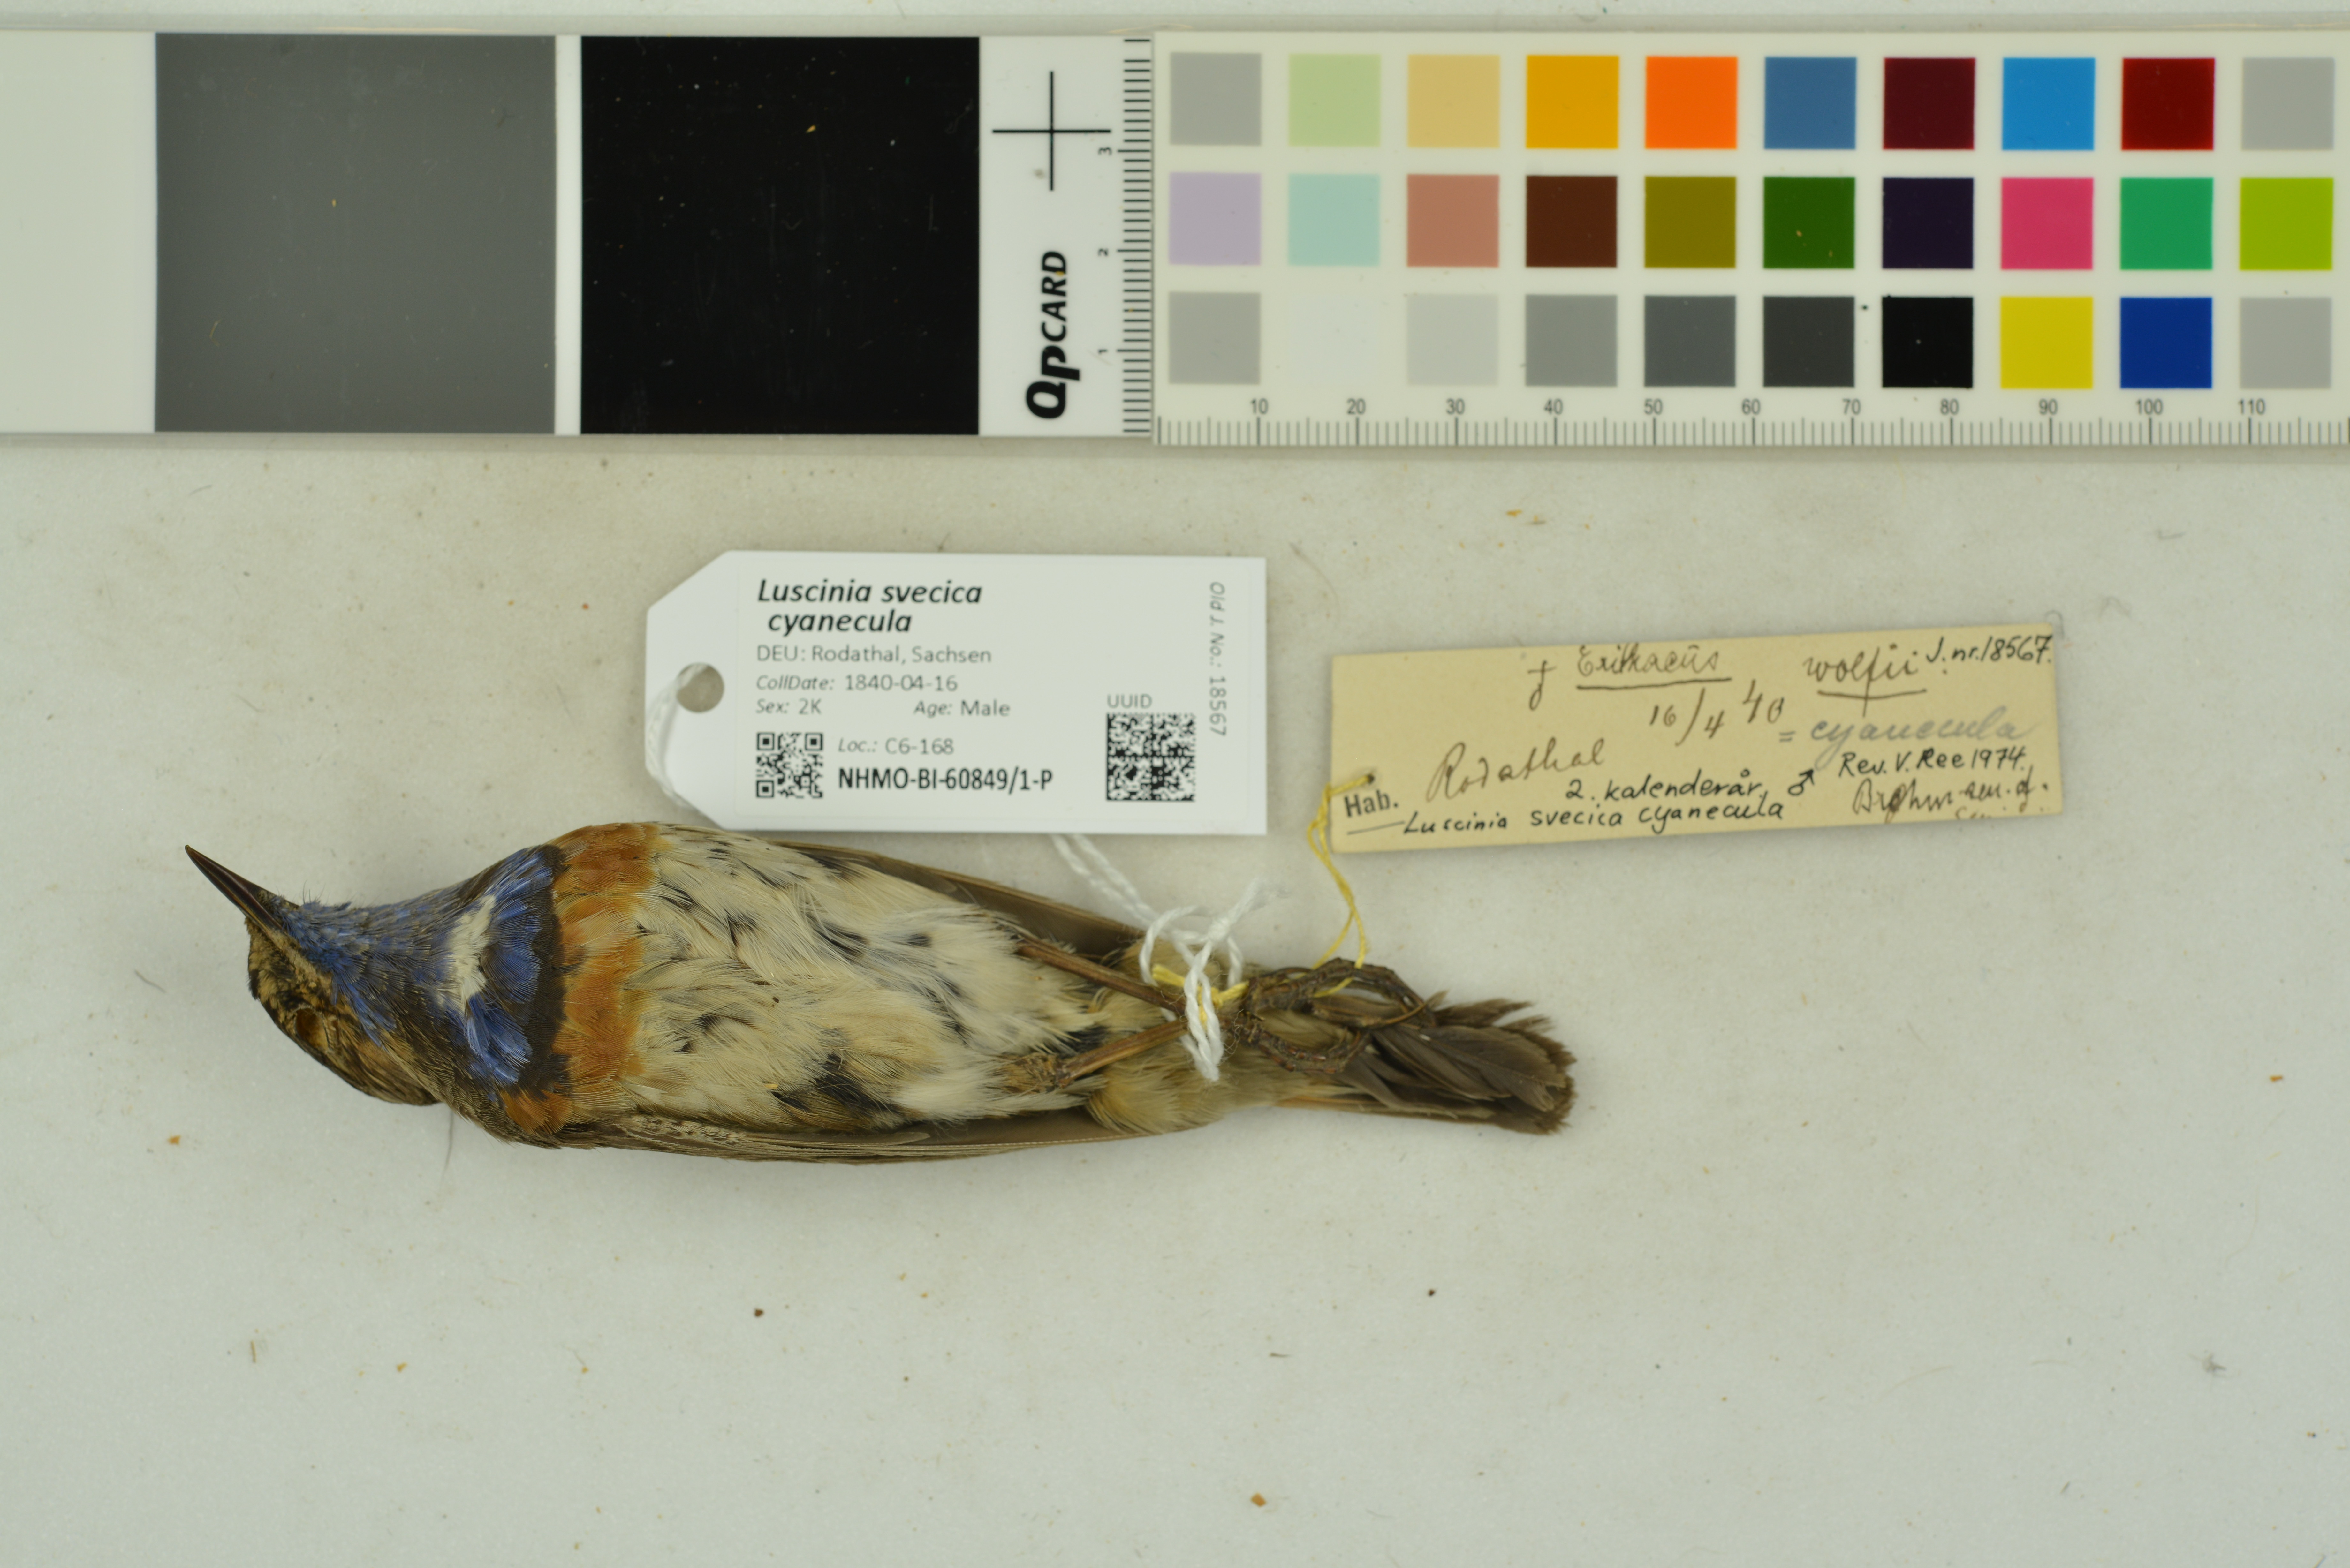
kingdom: Animalia
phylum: Chordata
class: Aves
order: Passeriformes
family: Muscicapidae
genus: Luscinia
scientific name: Luscinia svecica
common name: Bluethroat
